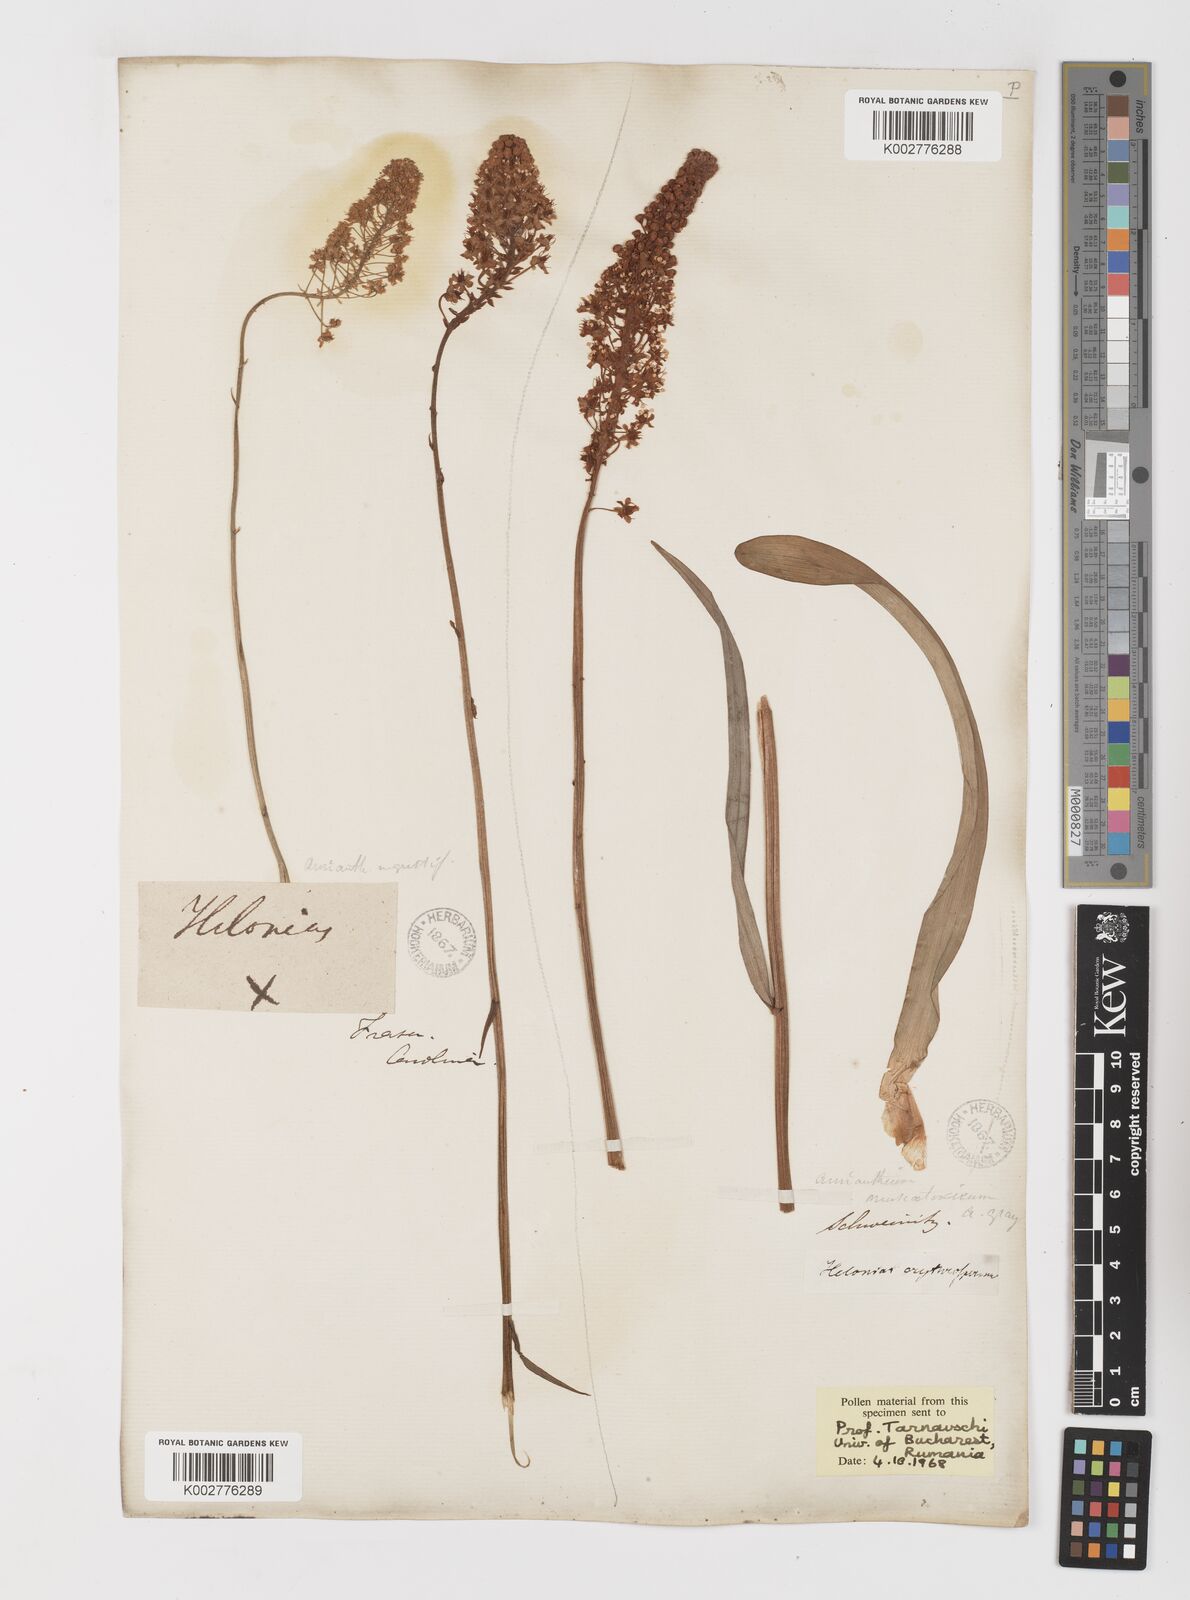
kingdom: Plantae
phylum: Tracheophyta
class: Liliopsida
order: Liliales
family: Melanthiaceae
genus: Amianthium
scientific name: Amianthium muscitoxicum
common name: Fly-poison
